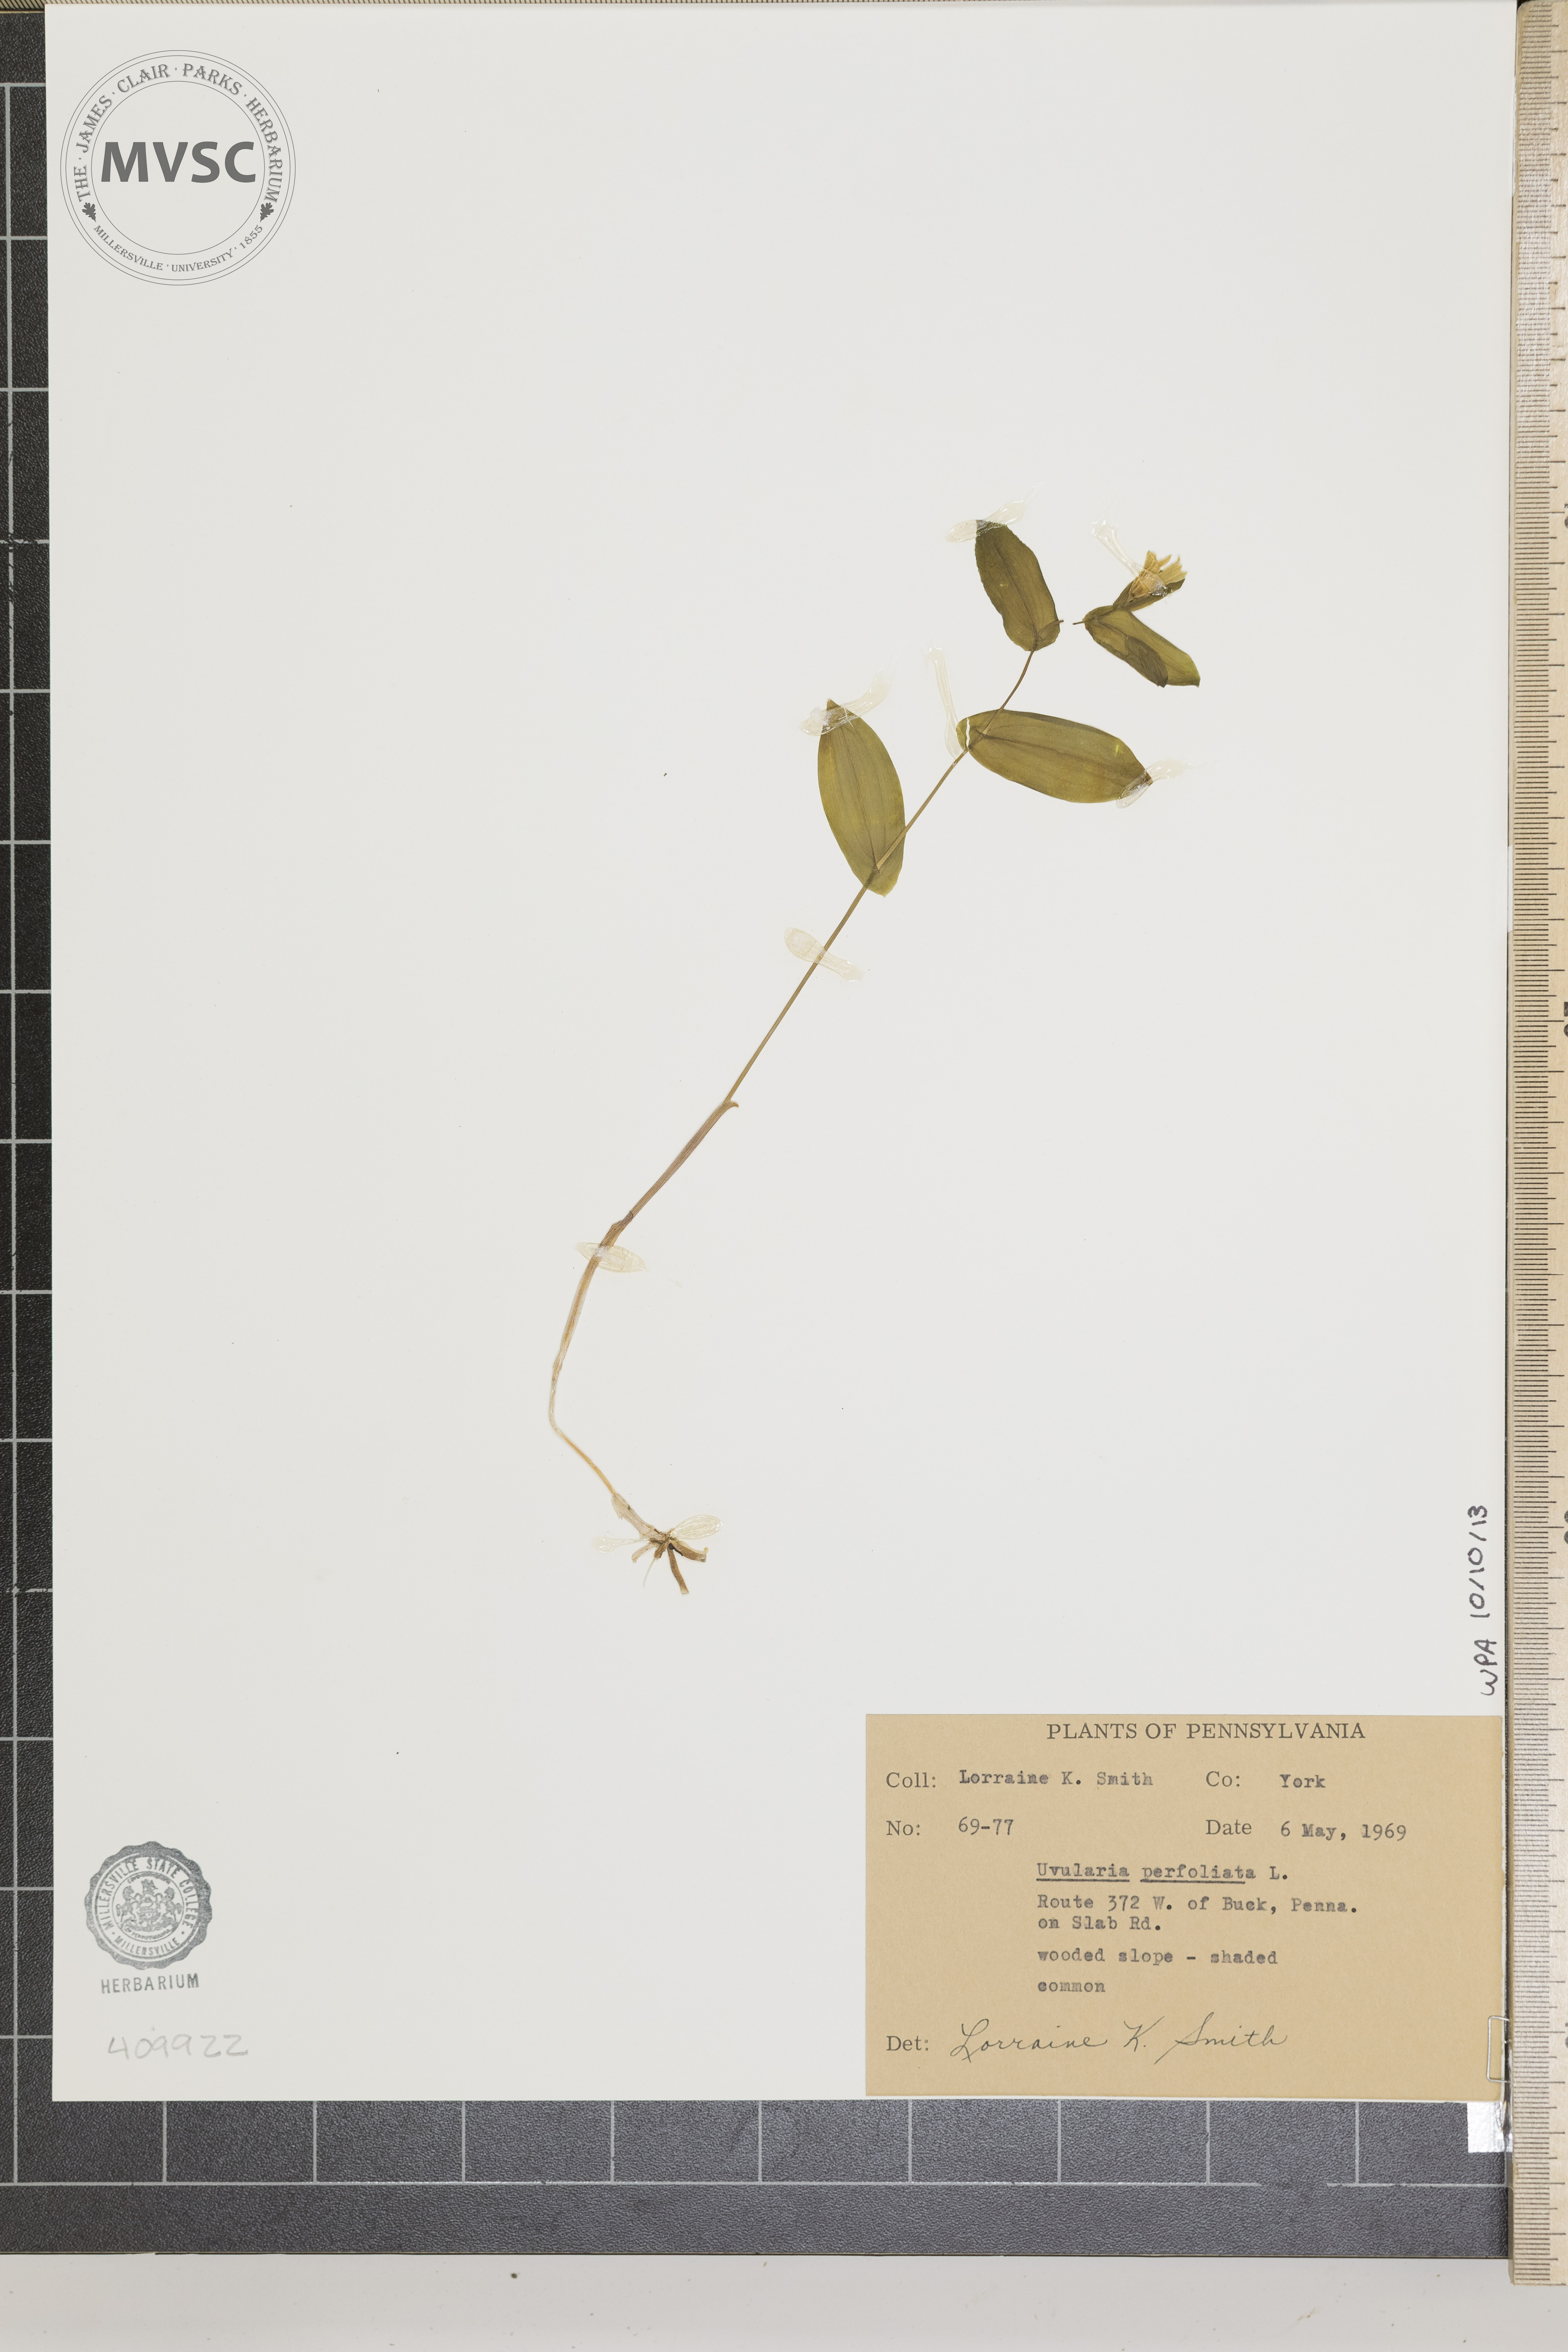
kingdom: Plantae
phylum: Tracheophyta
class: Liliopsida
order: Liliales
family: Colchicaceae
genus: Uvularia
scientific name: Uvularia perfoliata
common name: Perfoliate bellwort
